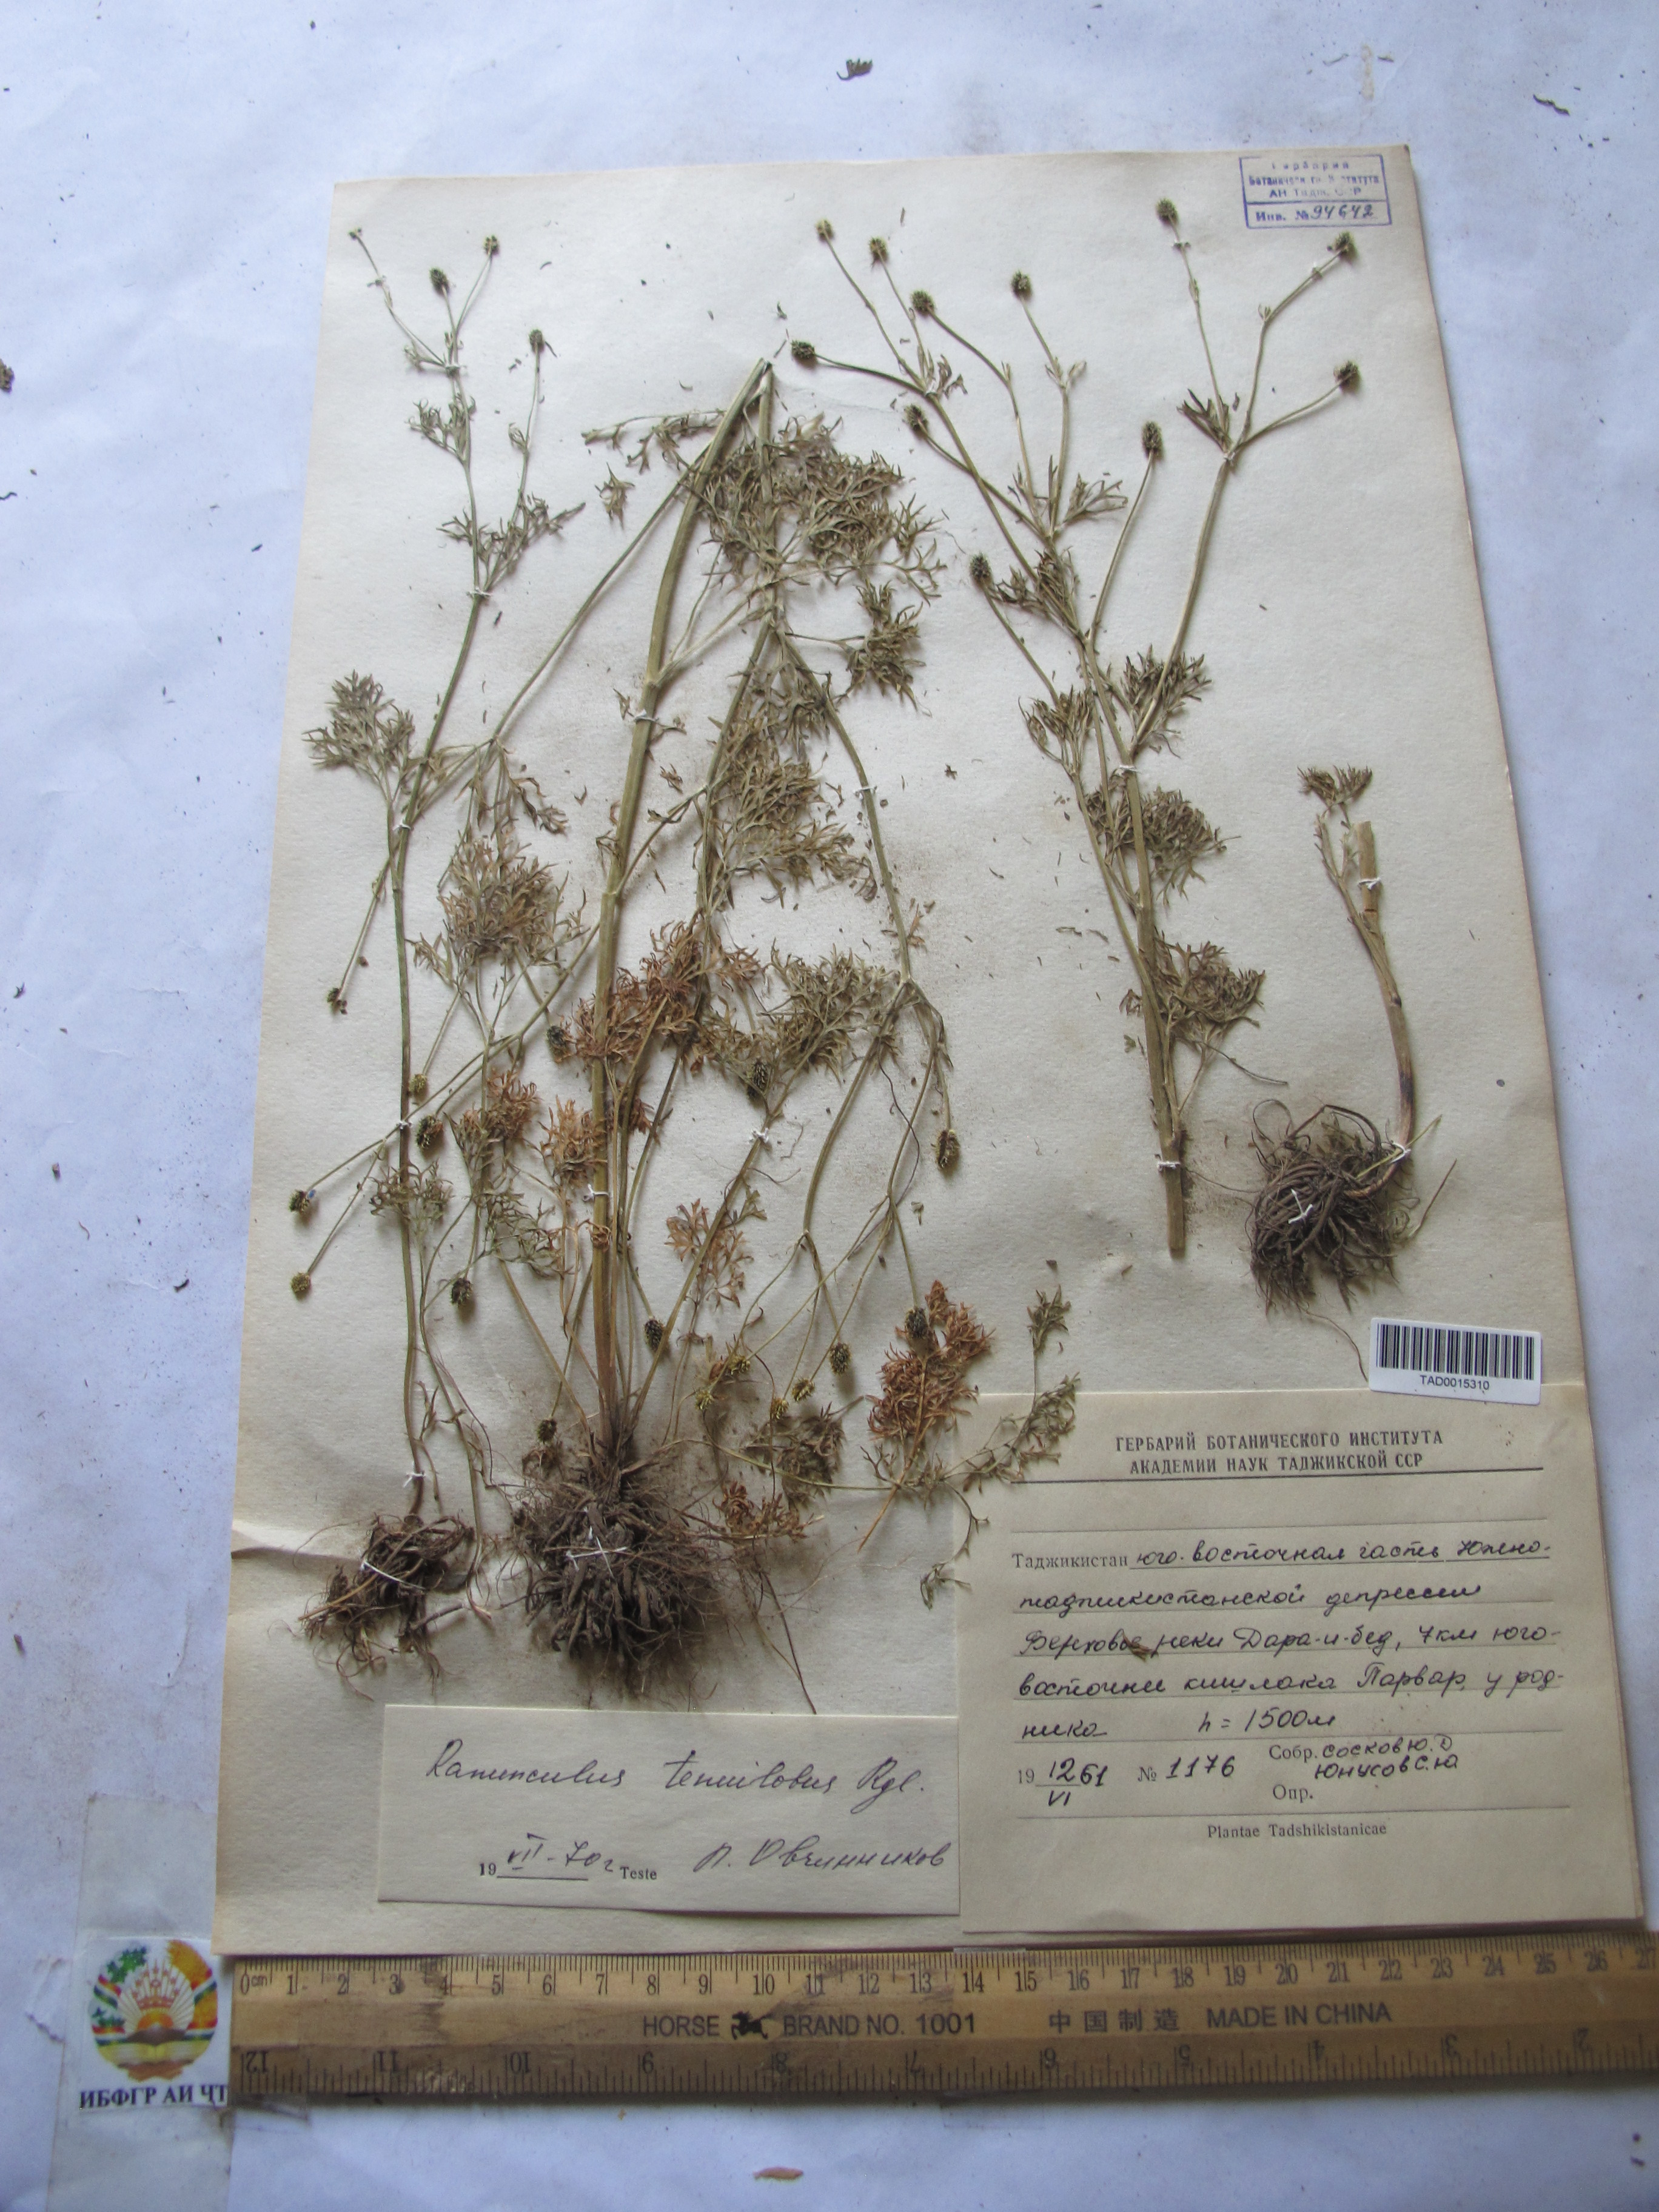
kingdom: Plantae
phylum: Tracheophyta
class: Magnoliopsida
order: Ranunculales
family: Ranunculaceae
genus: Ranunculus
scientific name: Ranunculus tenuilobus
